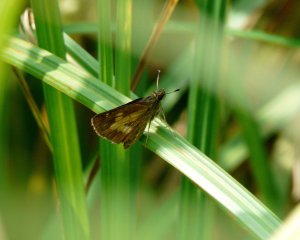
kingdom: Animalia
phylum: Arthropoda
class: Insecta
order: Lepidoptera
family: Hesperiidae
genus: Poanes
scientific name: Poanes massasoit
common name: Mulberry Wing
